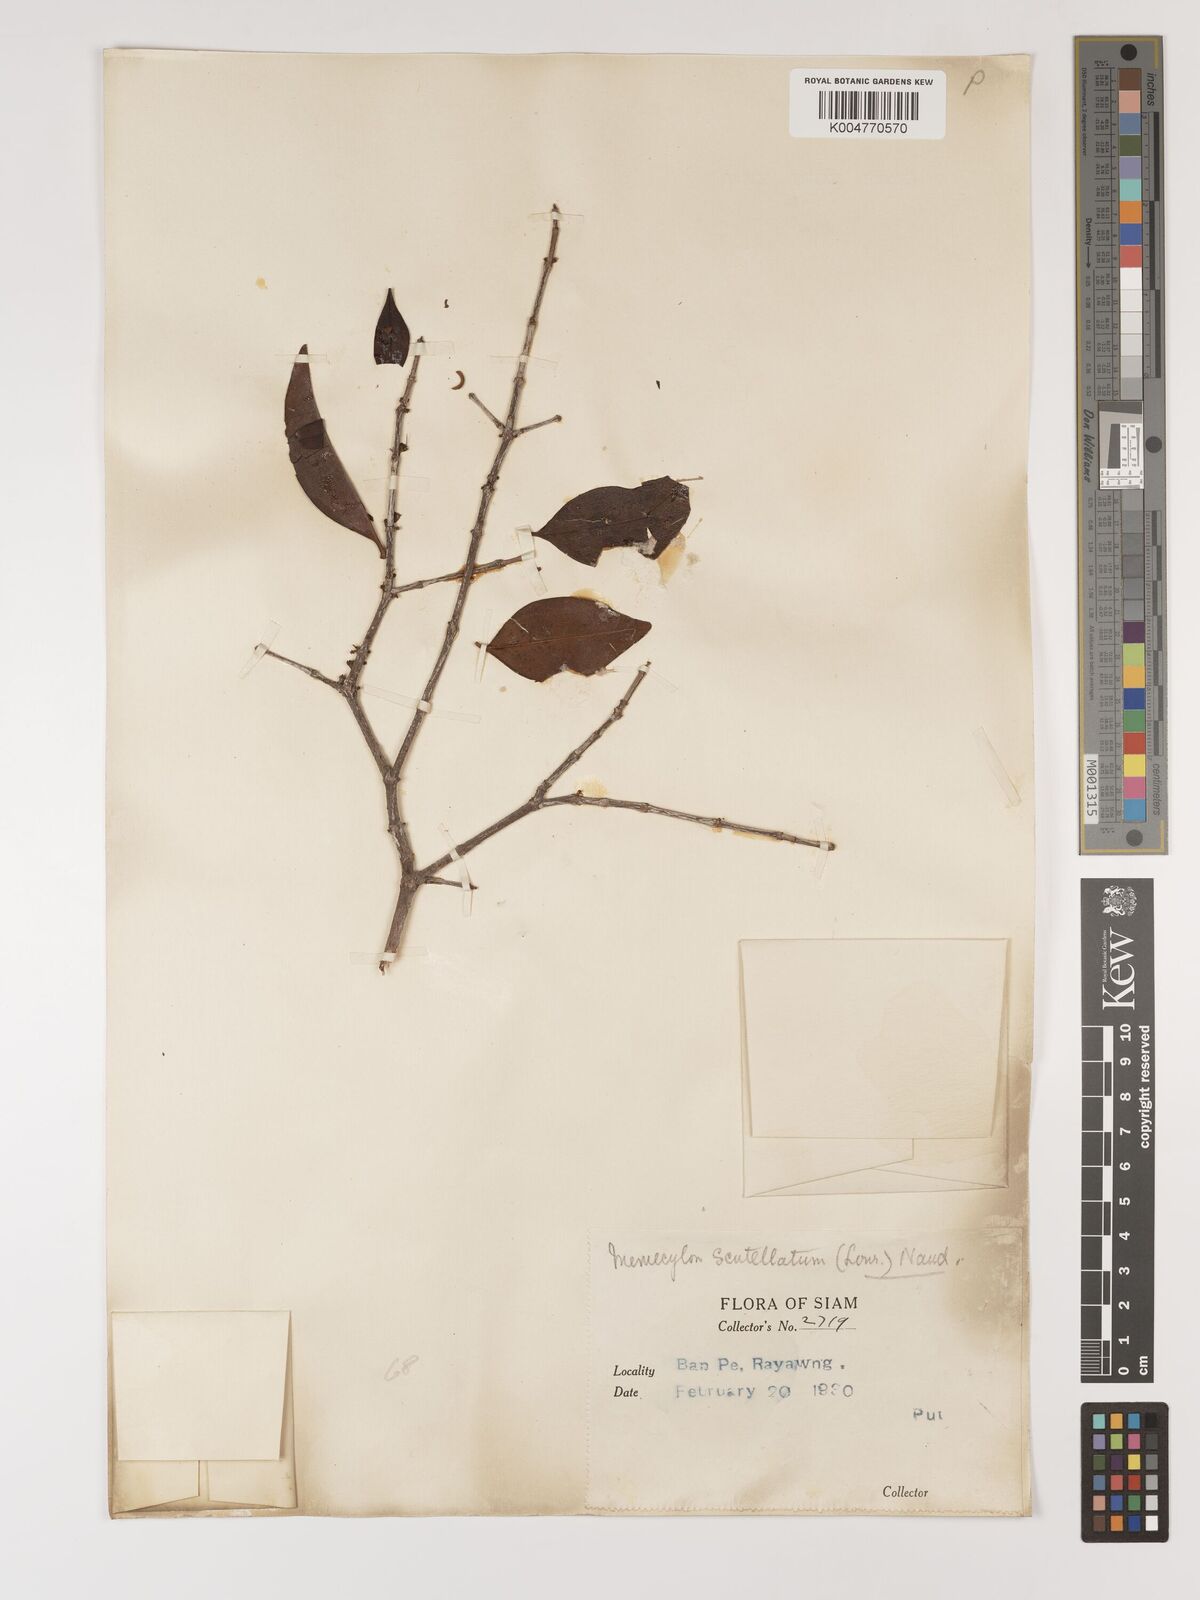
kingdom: Plantae
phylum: Tracheophyta
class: Magnoliopsida
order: Myrtales
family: Melastomataceae
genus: Memecylon
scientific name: Memecylon scutellatum
